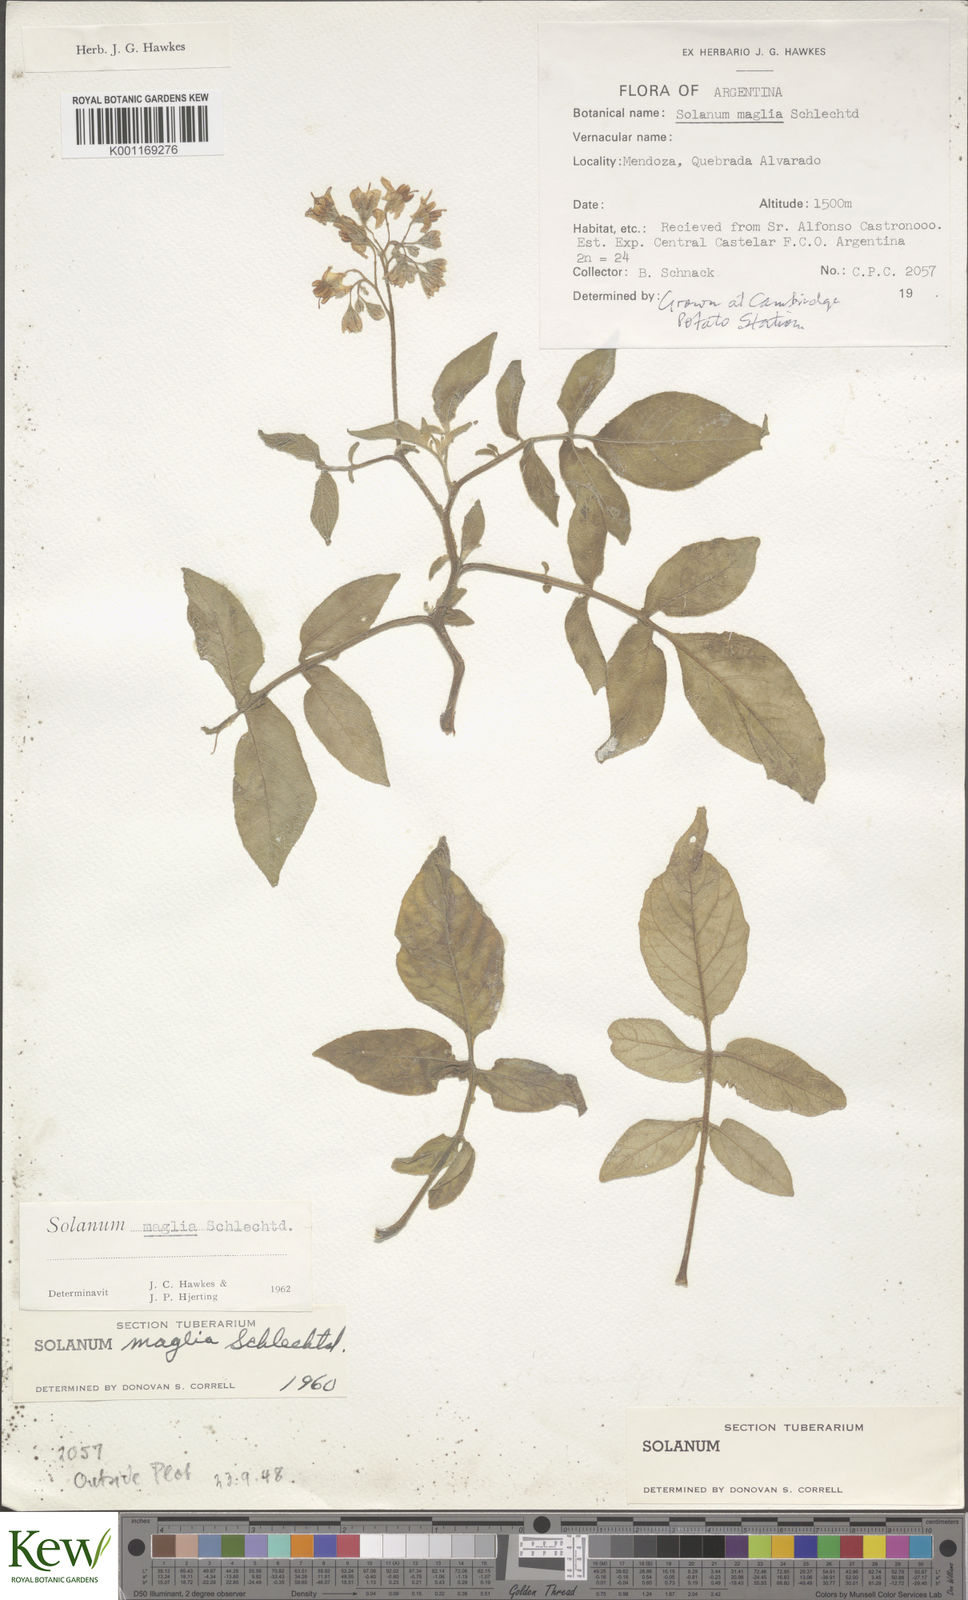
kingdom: Plantae
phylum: Tracheophyta
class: Magnoliopsida
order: Solanales
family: Solanaceae
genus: Solanum
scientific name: Solanum maglia
